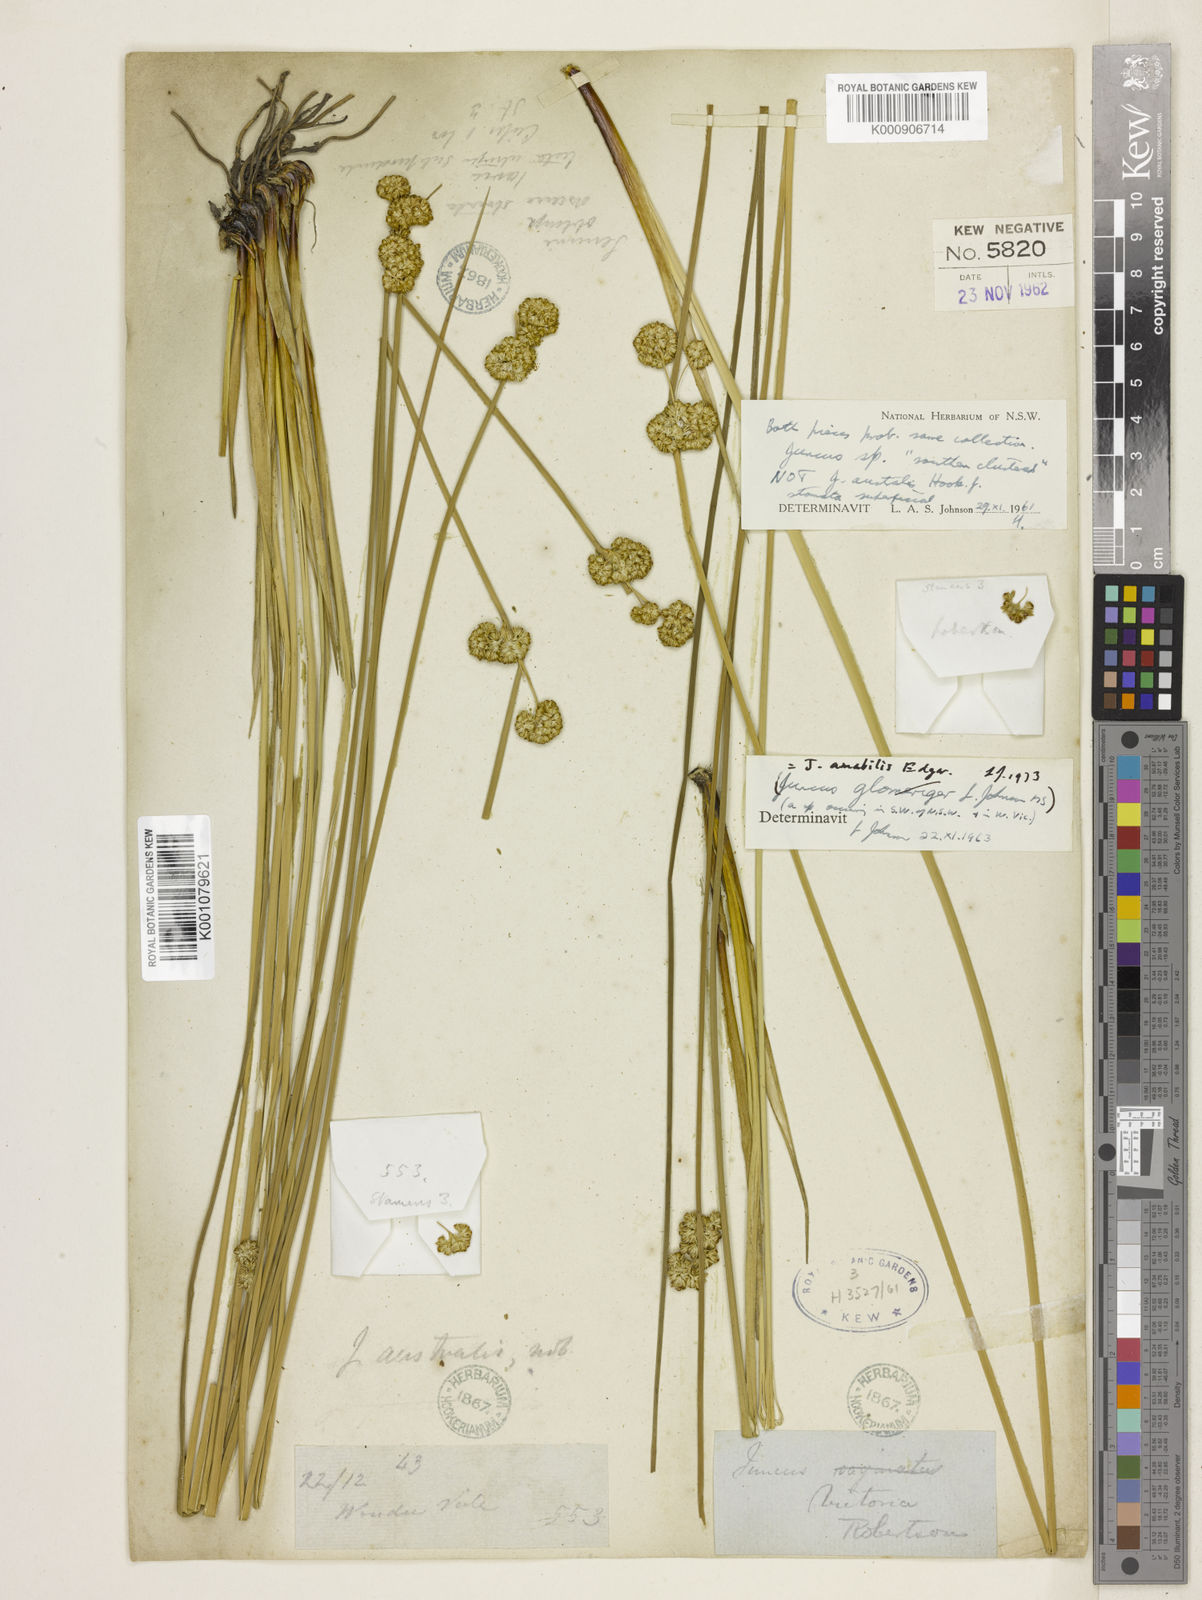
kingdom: Plantae
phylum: Tracheophyta
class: Liliopsida
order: Poales
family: Juncaceae
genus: Juncus
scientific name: Juncus amabilis
